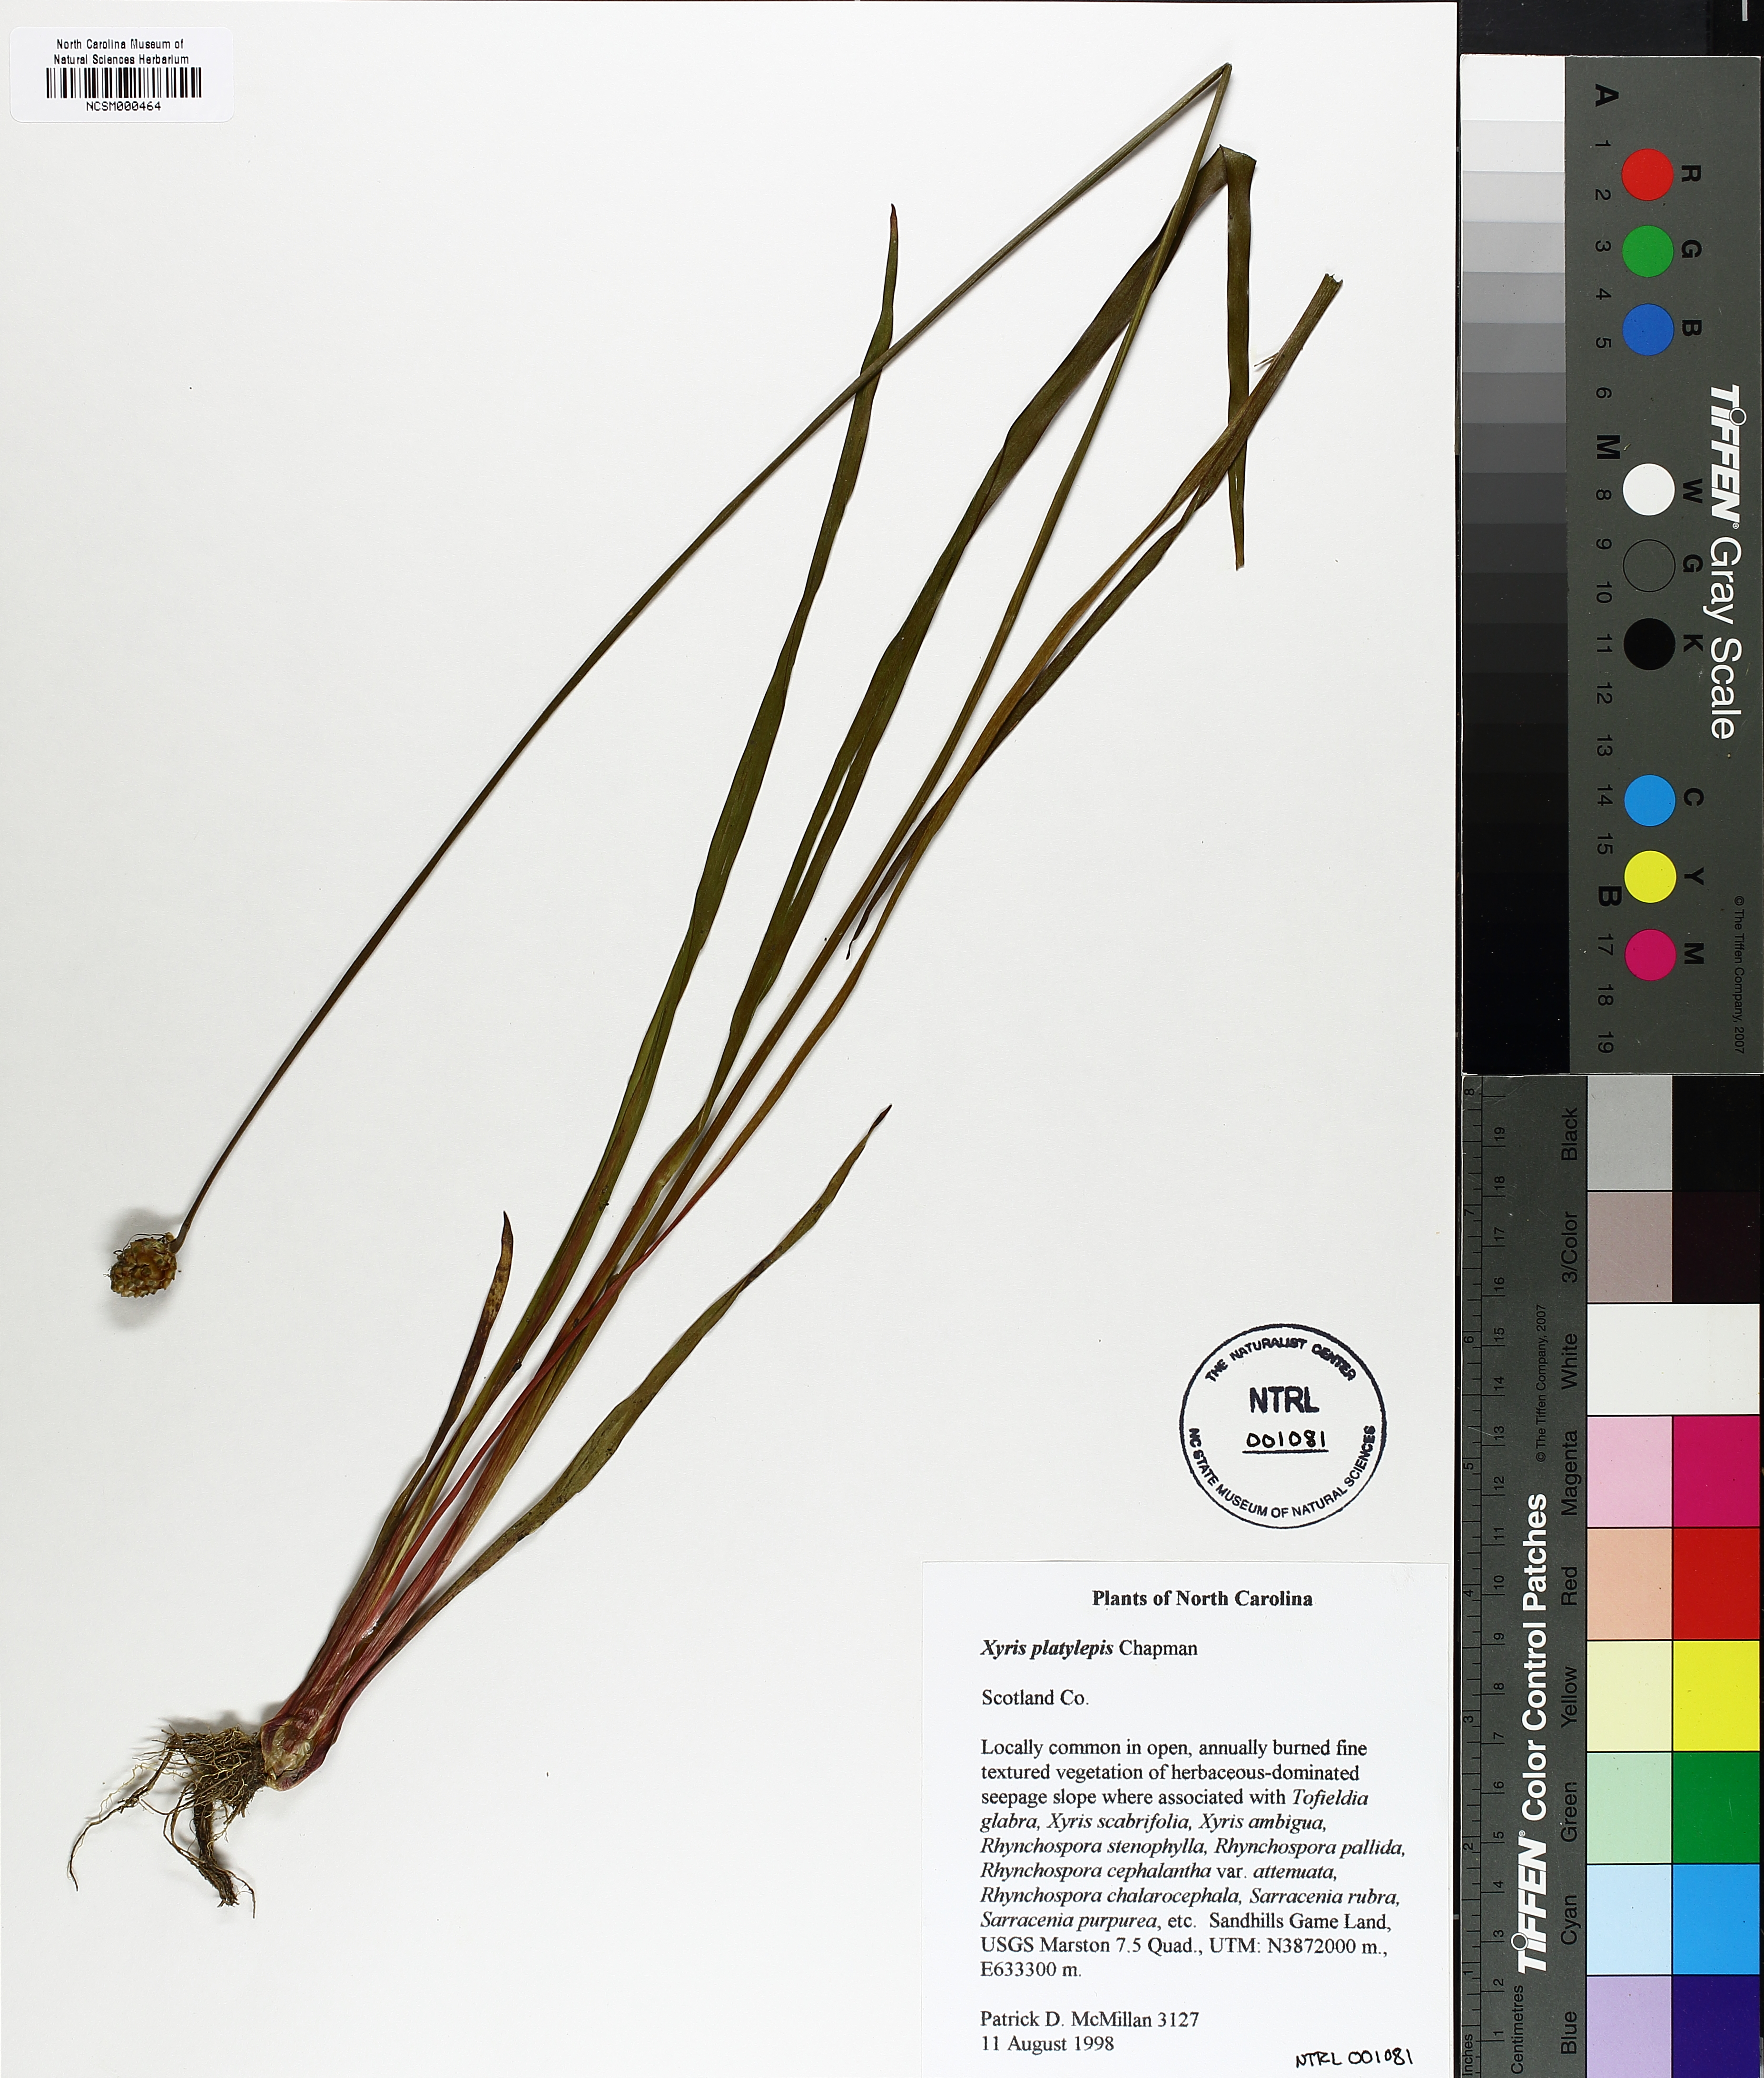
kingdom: Plantae
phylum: Tracheophyta
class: Liliopsida
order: Poales
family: Xyridaceae
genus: Xyris
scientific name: Xyris platylepis
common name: Tall yelloweyed grass
